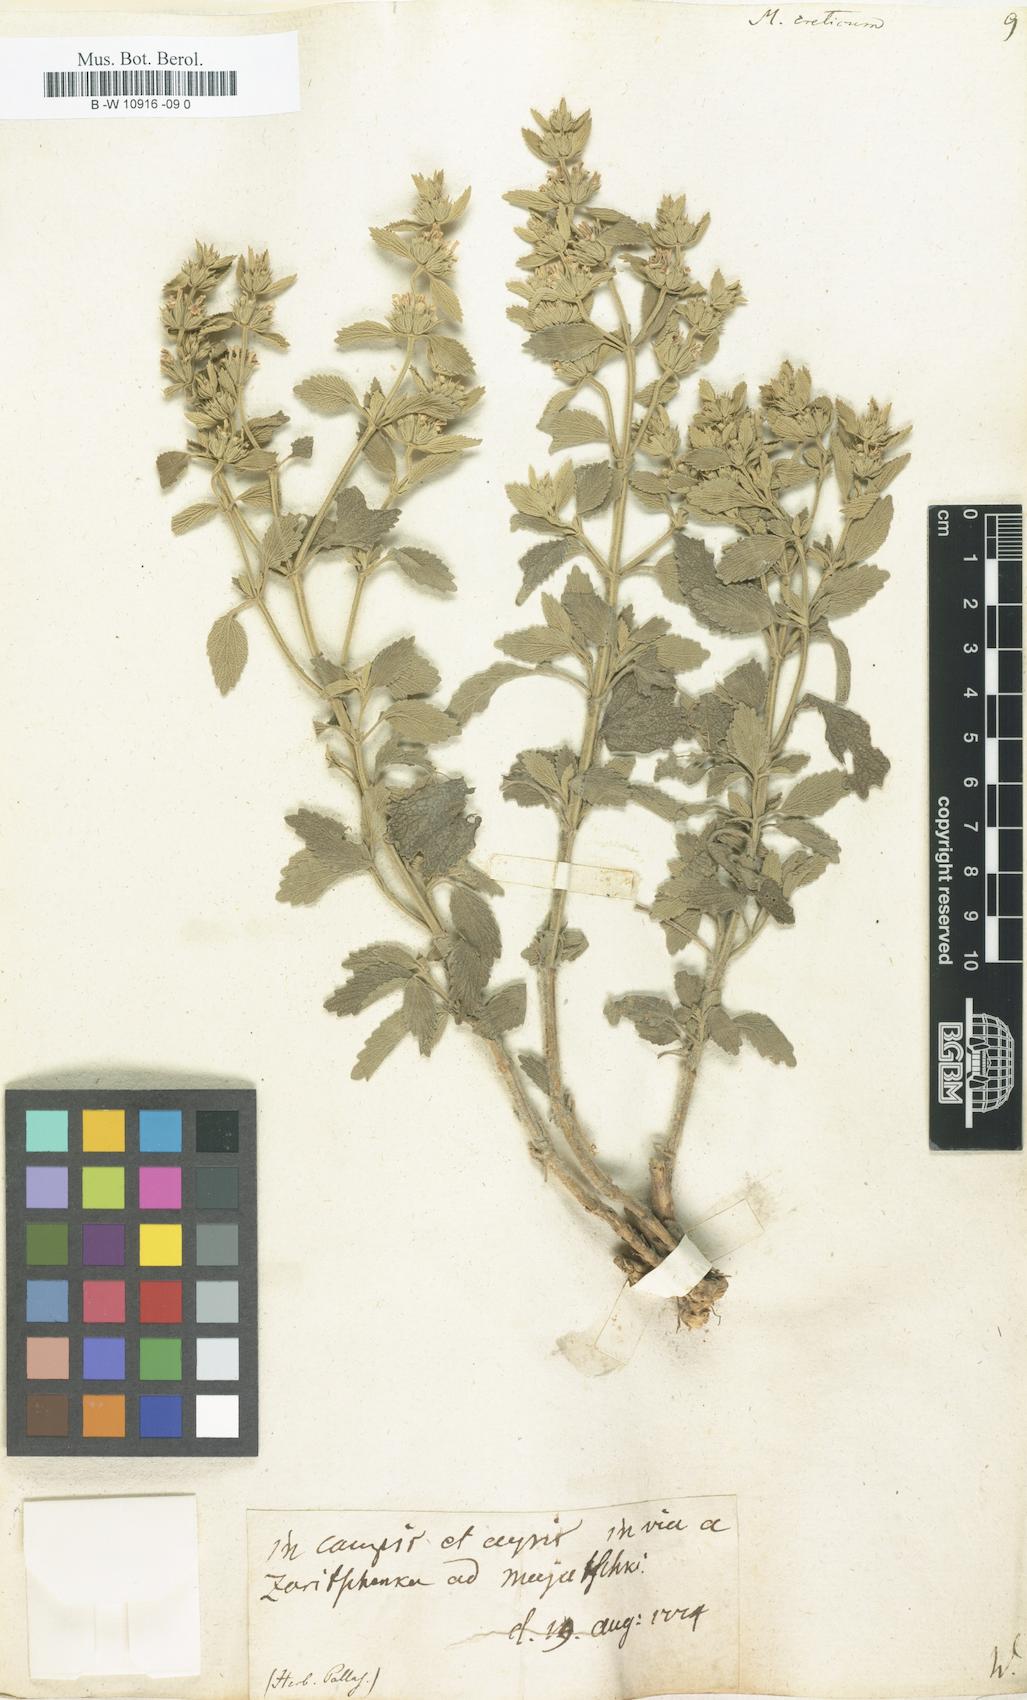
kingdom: Plantae
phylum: Tracheophyta
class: Magnoliopsida
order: Lamiales
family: Lamiaceae
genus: Marrubium
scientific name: Marrubium peregrinum
